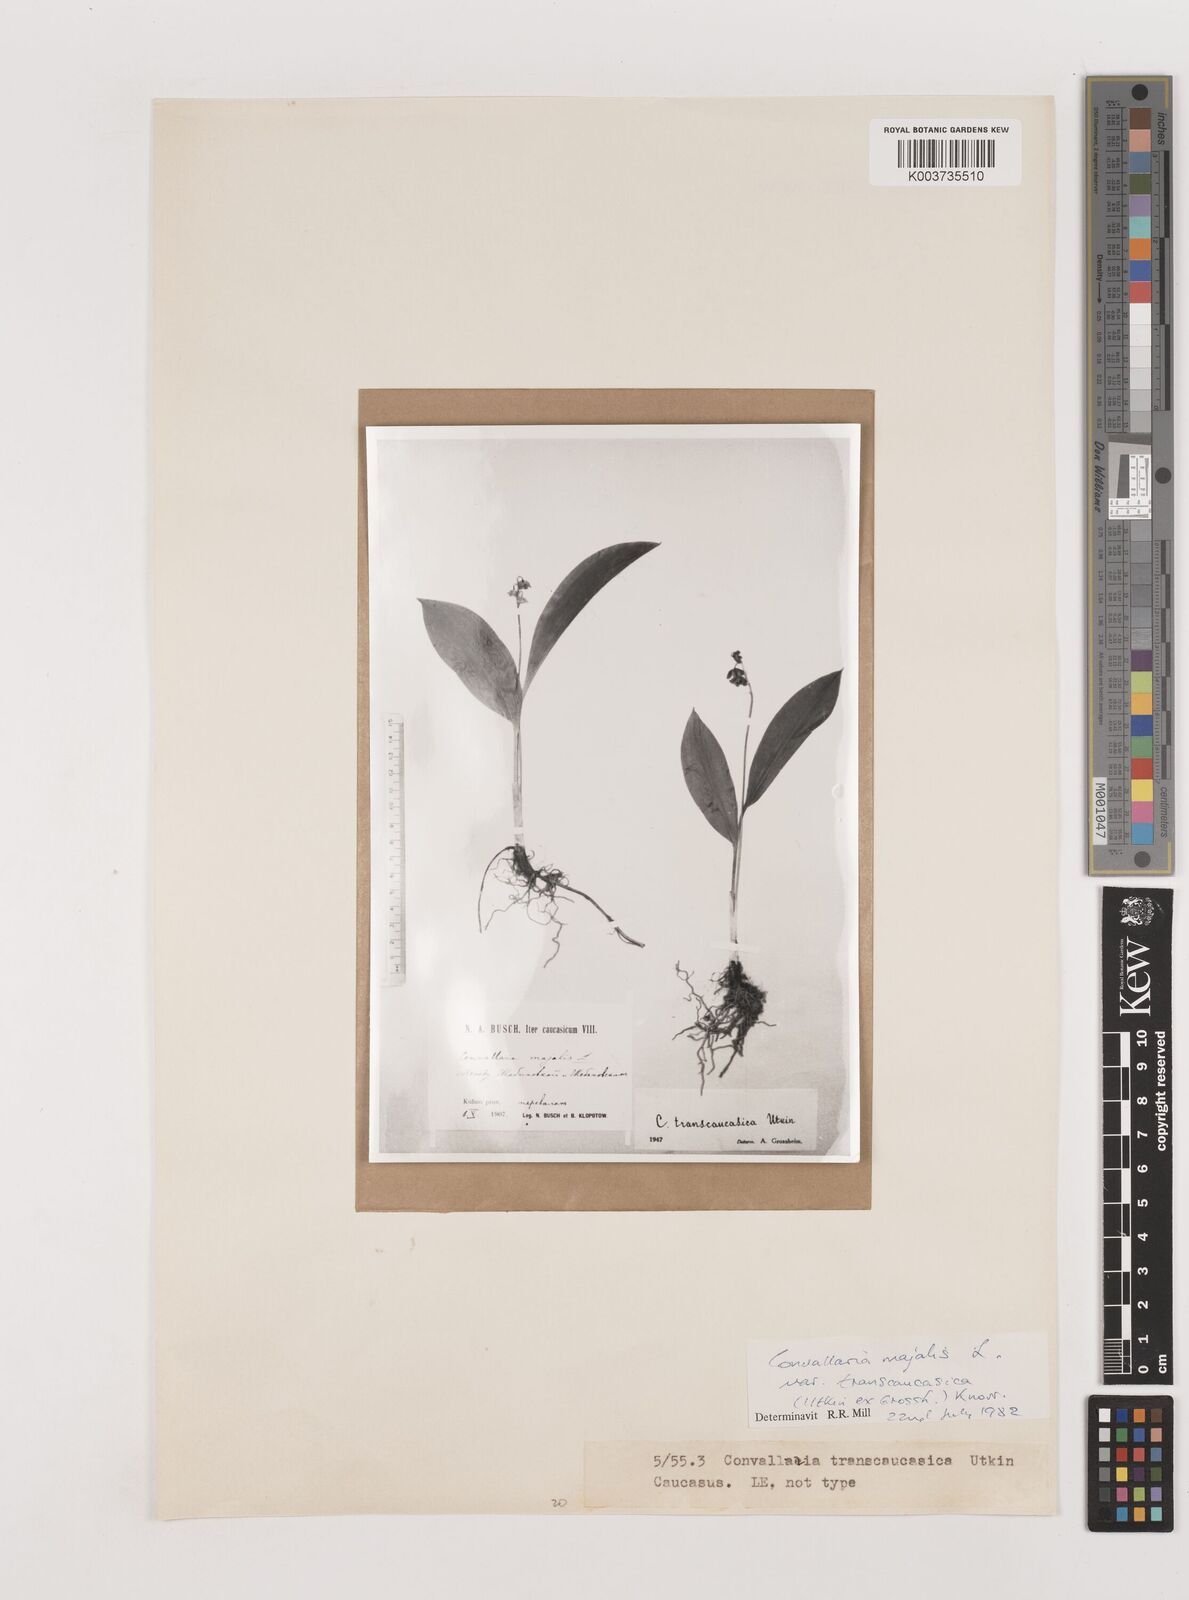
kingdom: Plantae
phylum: Tracheophyta
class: Liliopsida
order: Asparagales
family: Asparagaceae
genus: Convallaria
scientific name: Convallaria majalis
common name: Lily-of-the-valley
